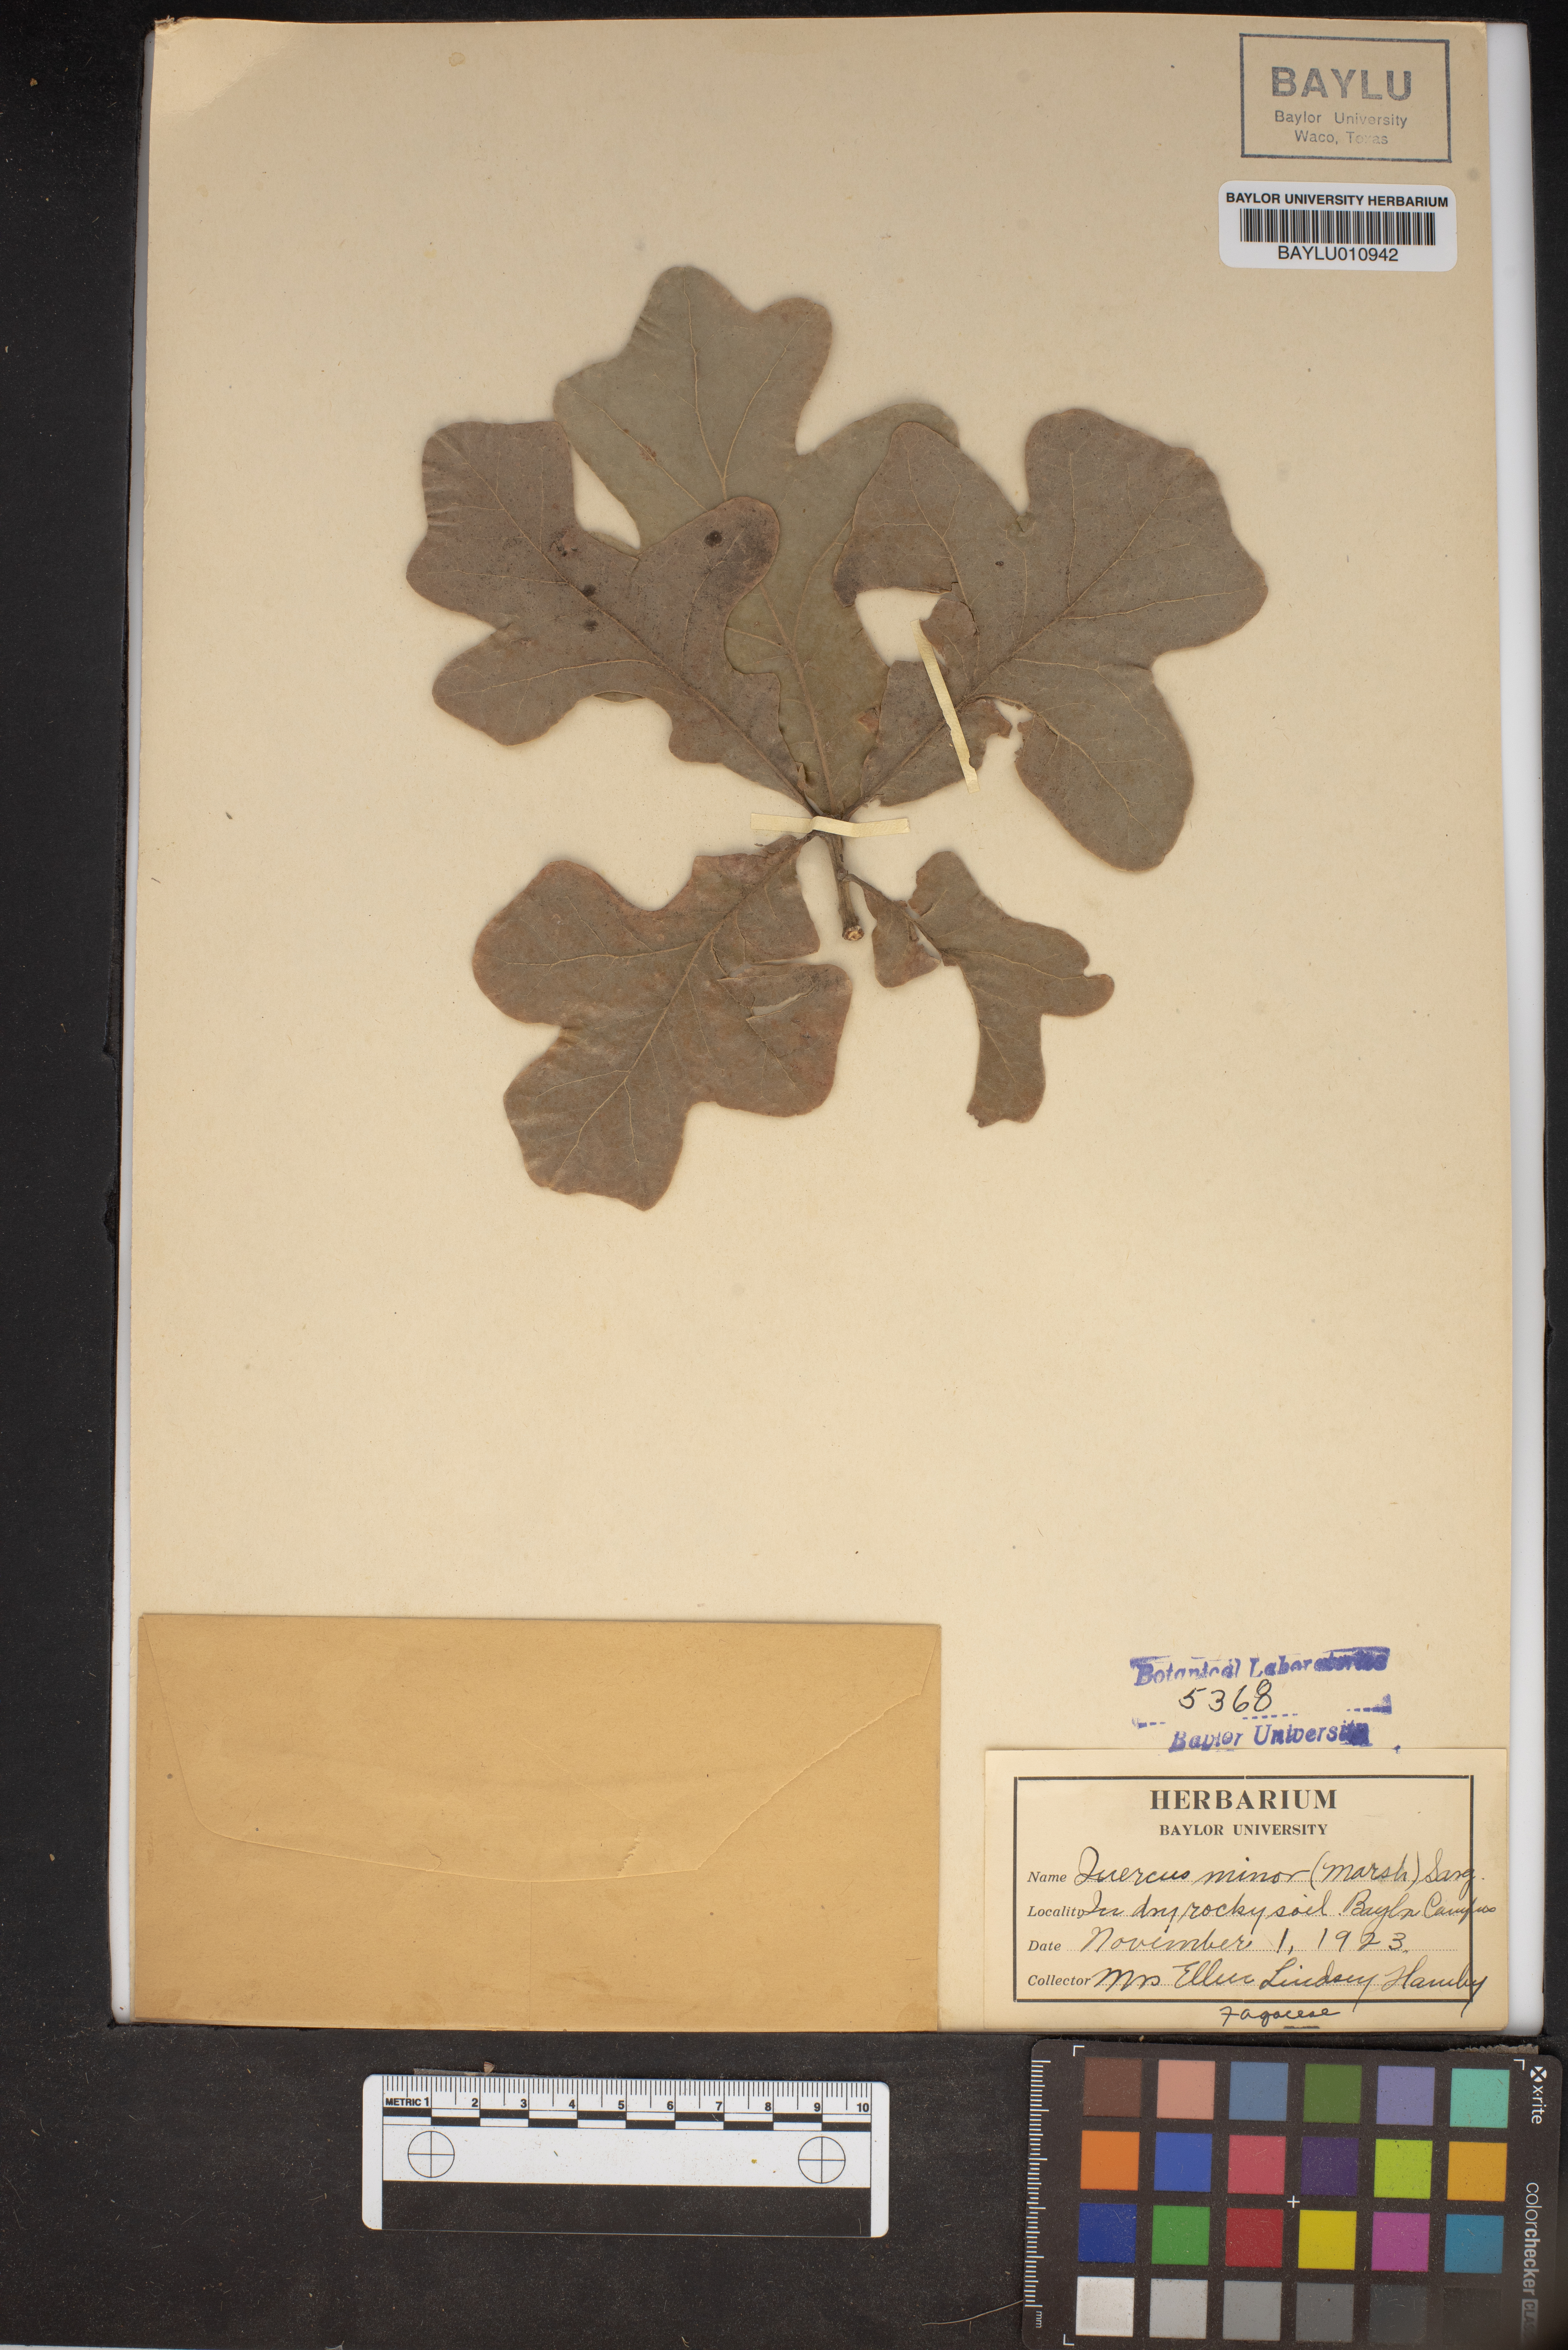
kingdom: Plantae
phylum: Tracheophyta
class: Magnoliopsida
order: Fagales
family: Fagaceae
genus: Quercus
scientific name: Quercus stellata
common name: Post oak
